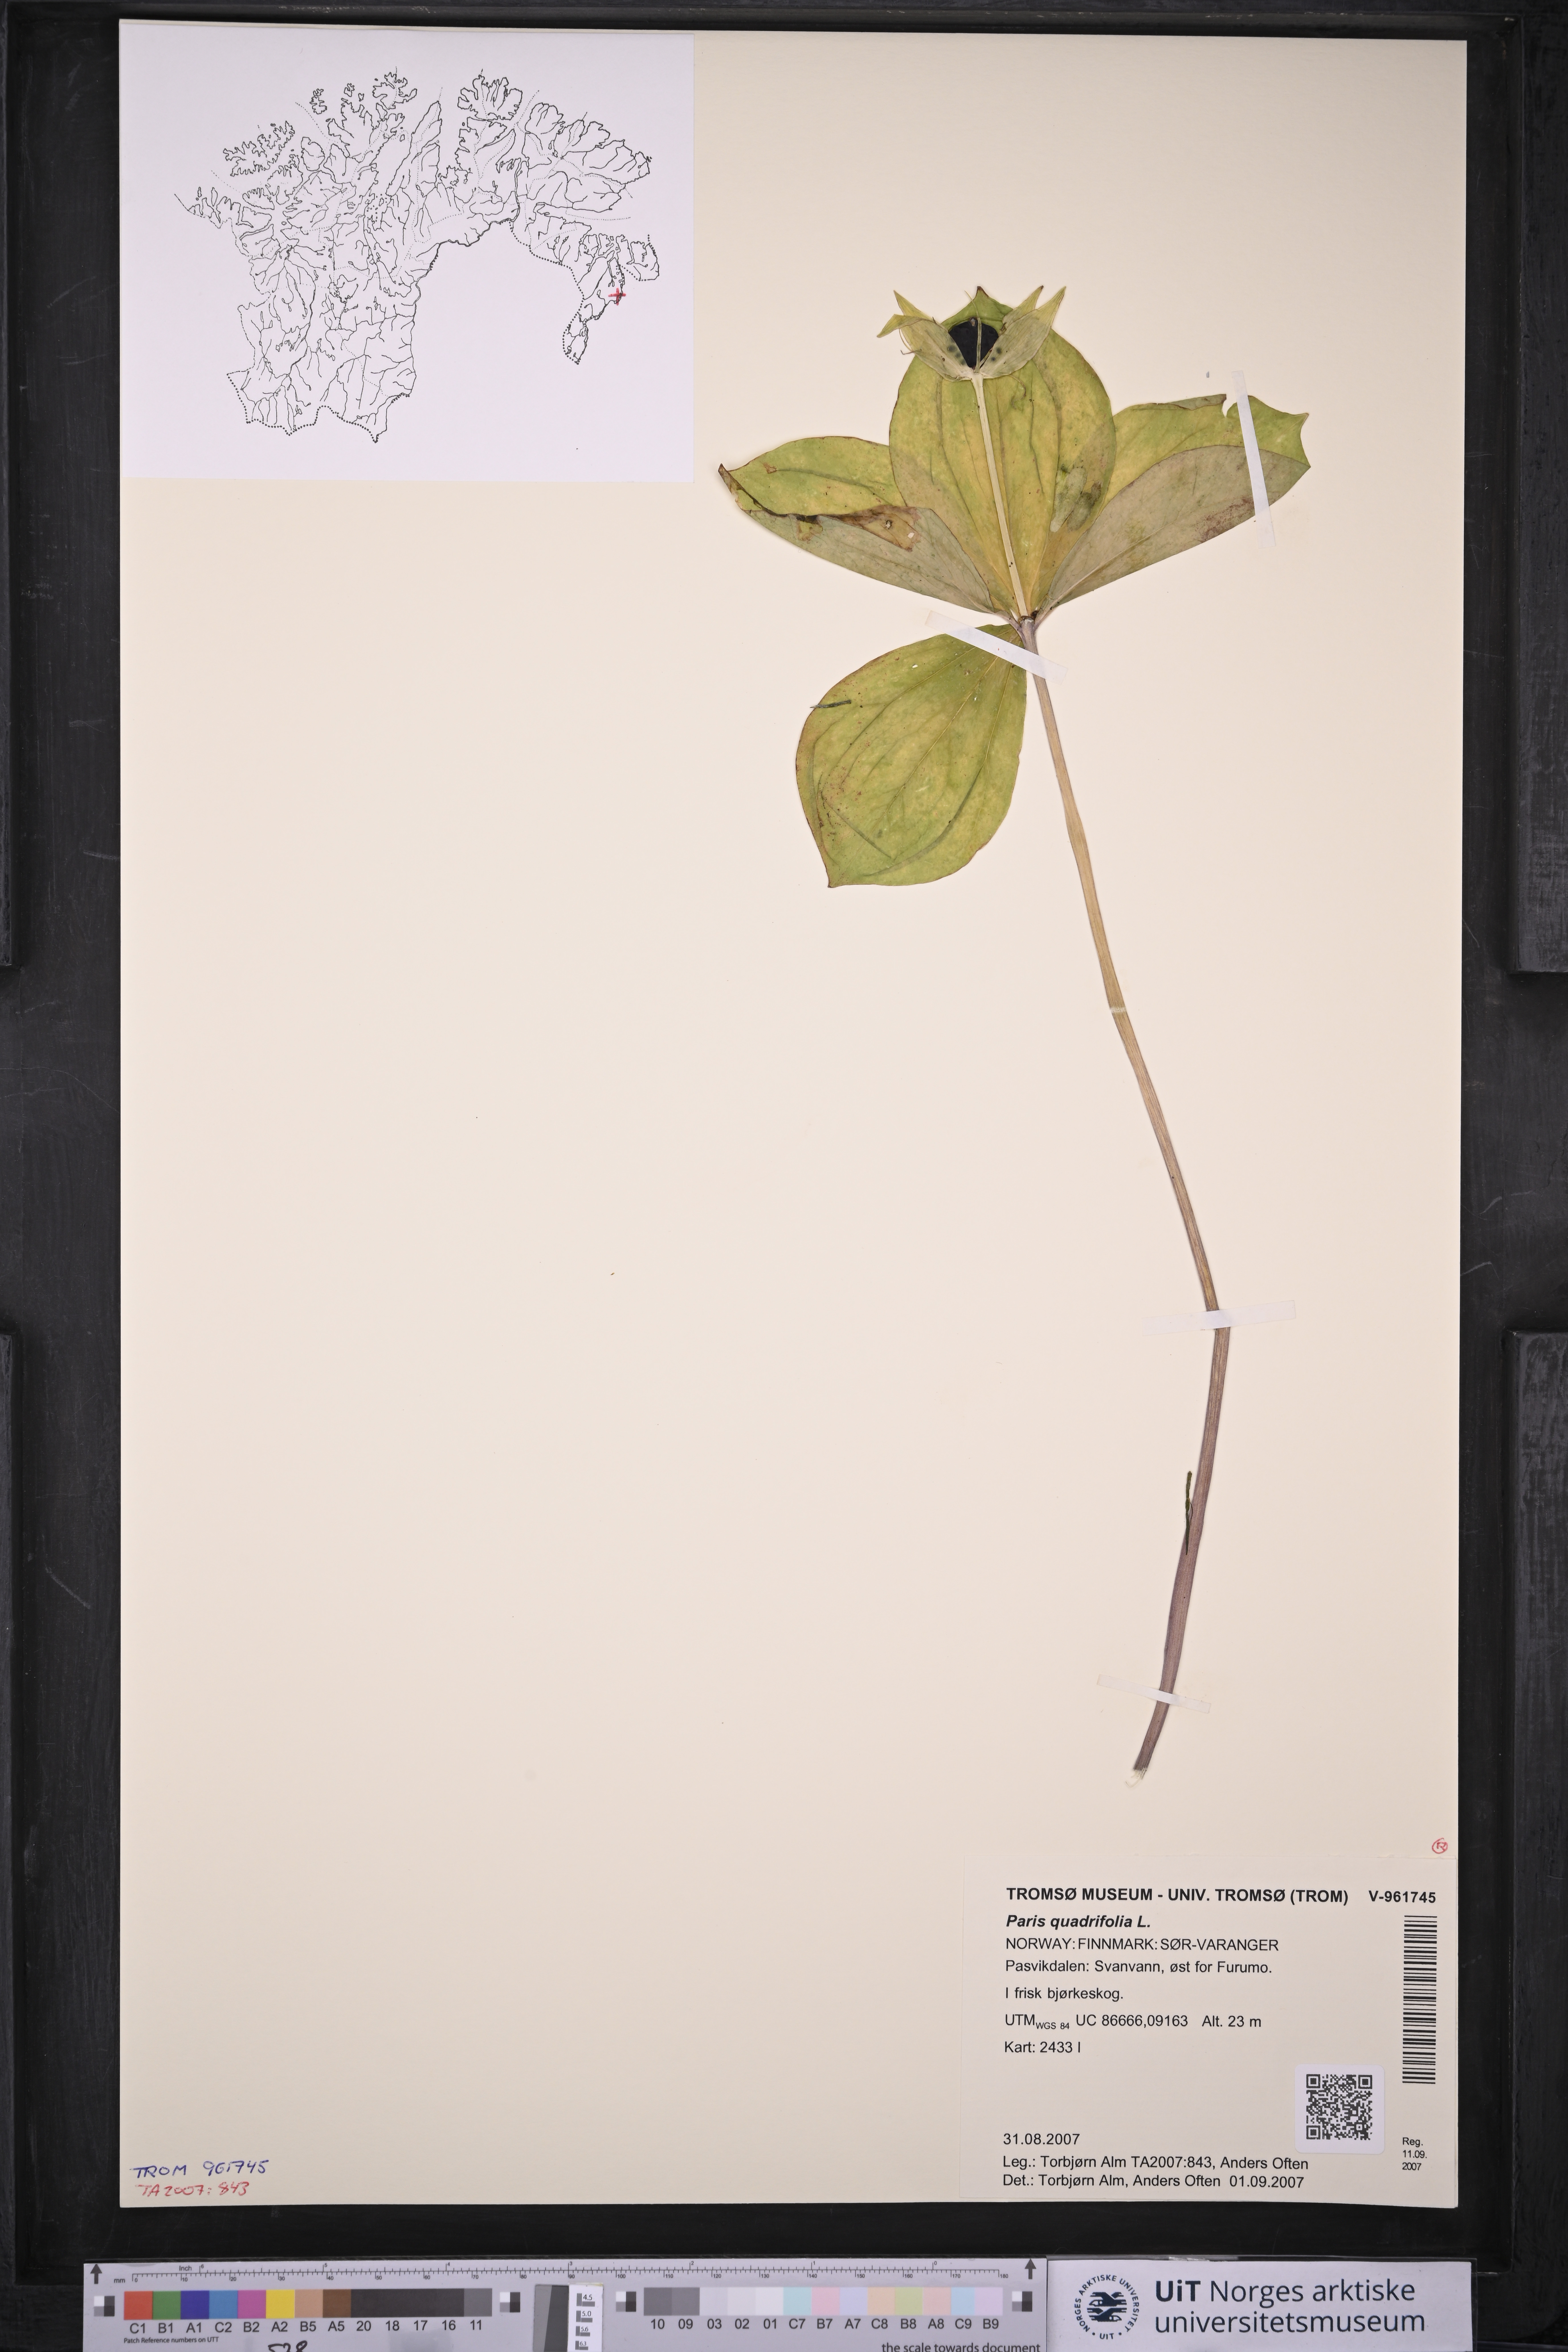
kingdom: Plantae
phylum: Tracheophyta
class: Liliopsida
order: Liliales
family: Melanthiaceae
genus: Paris
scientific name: Paris quadrifolia
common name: Herb-paris
